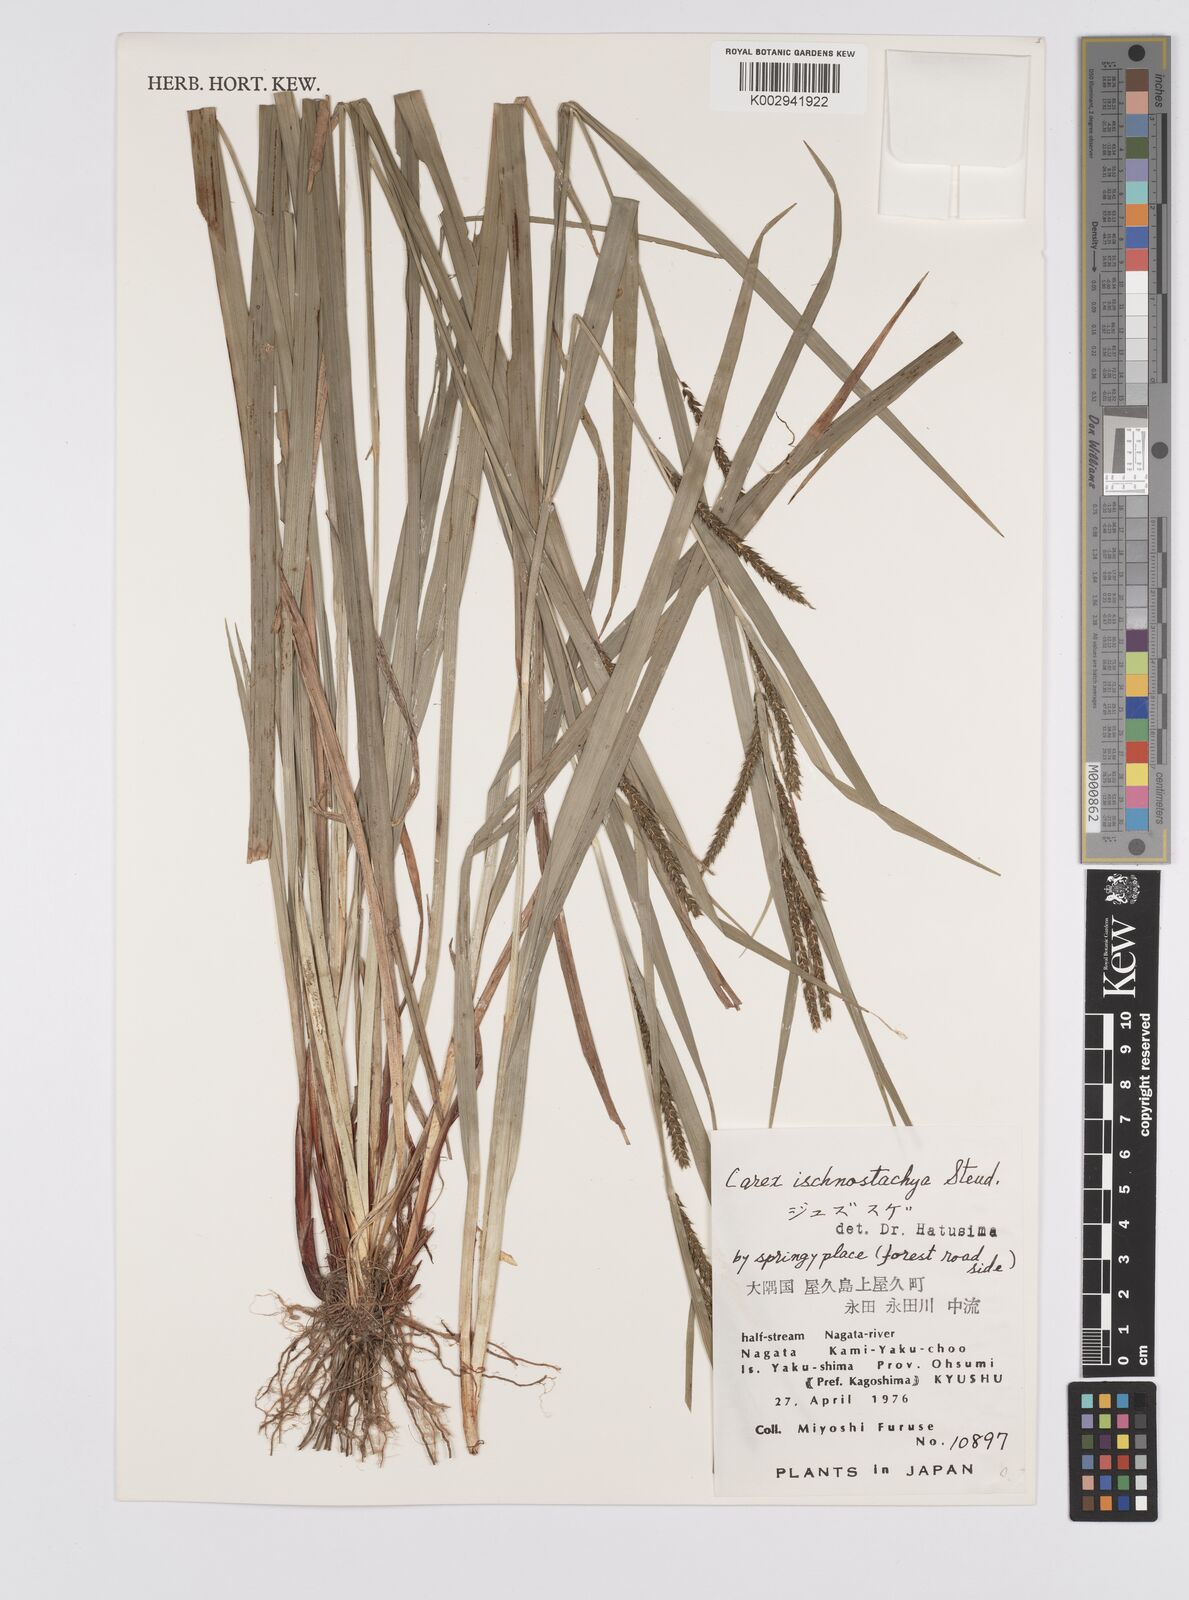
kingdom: Plantae
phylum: Tracheophyta
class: Liliopsida
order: Poales
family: Cyperaceae
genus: Carex
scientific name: Carex ischnostachya
